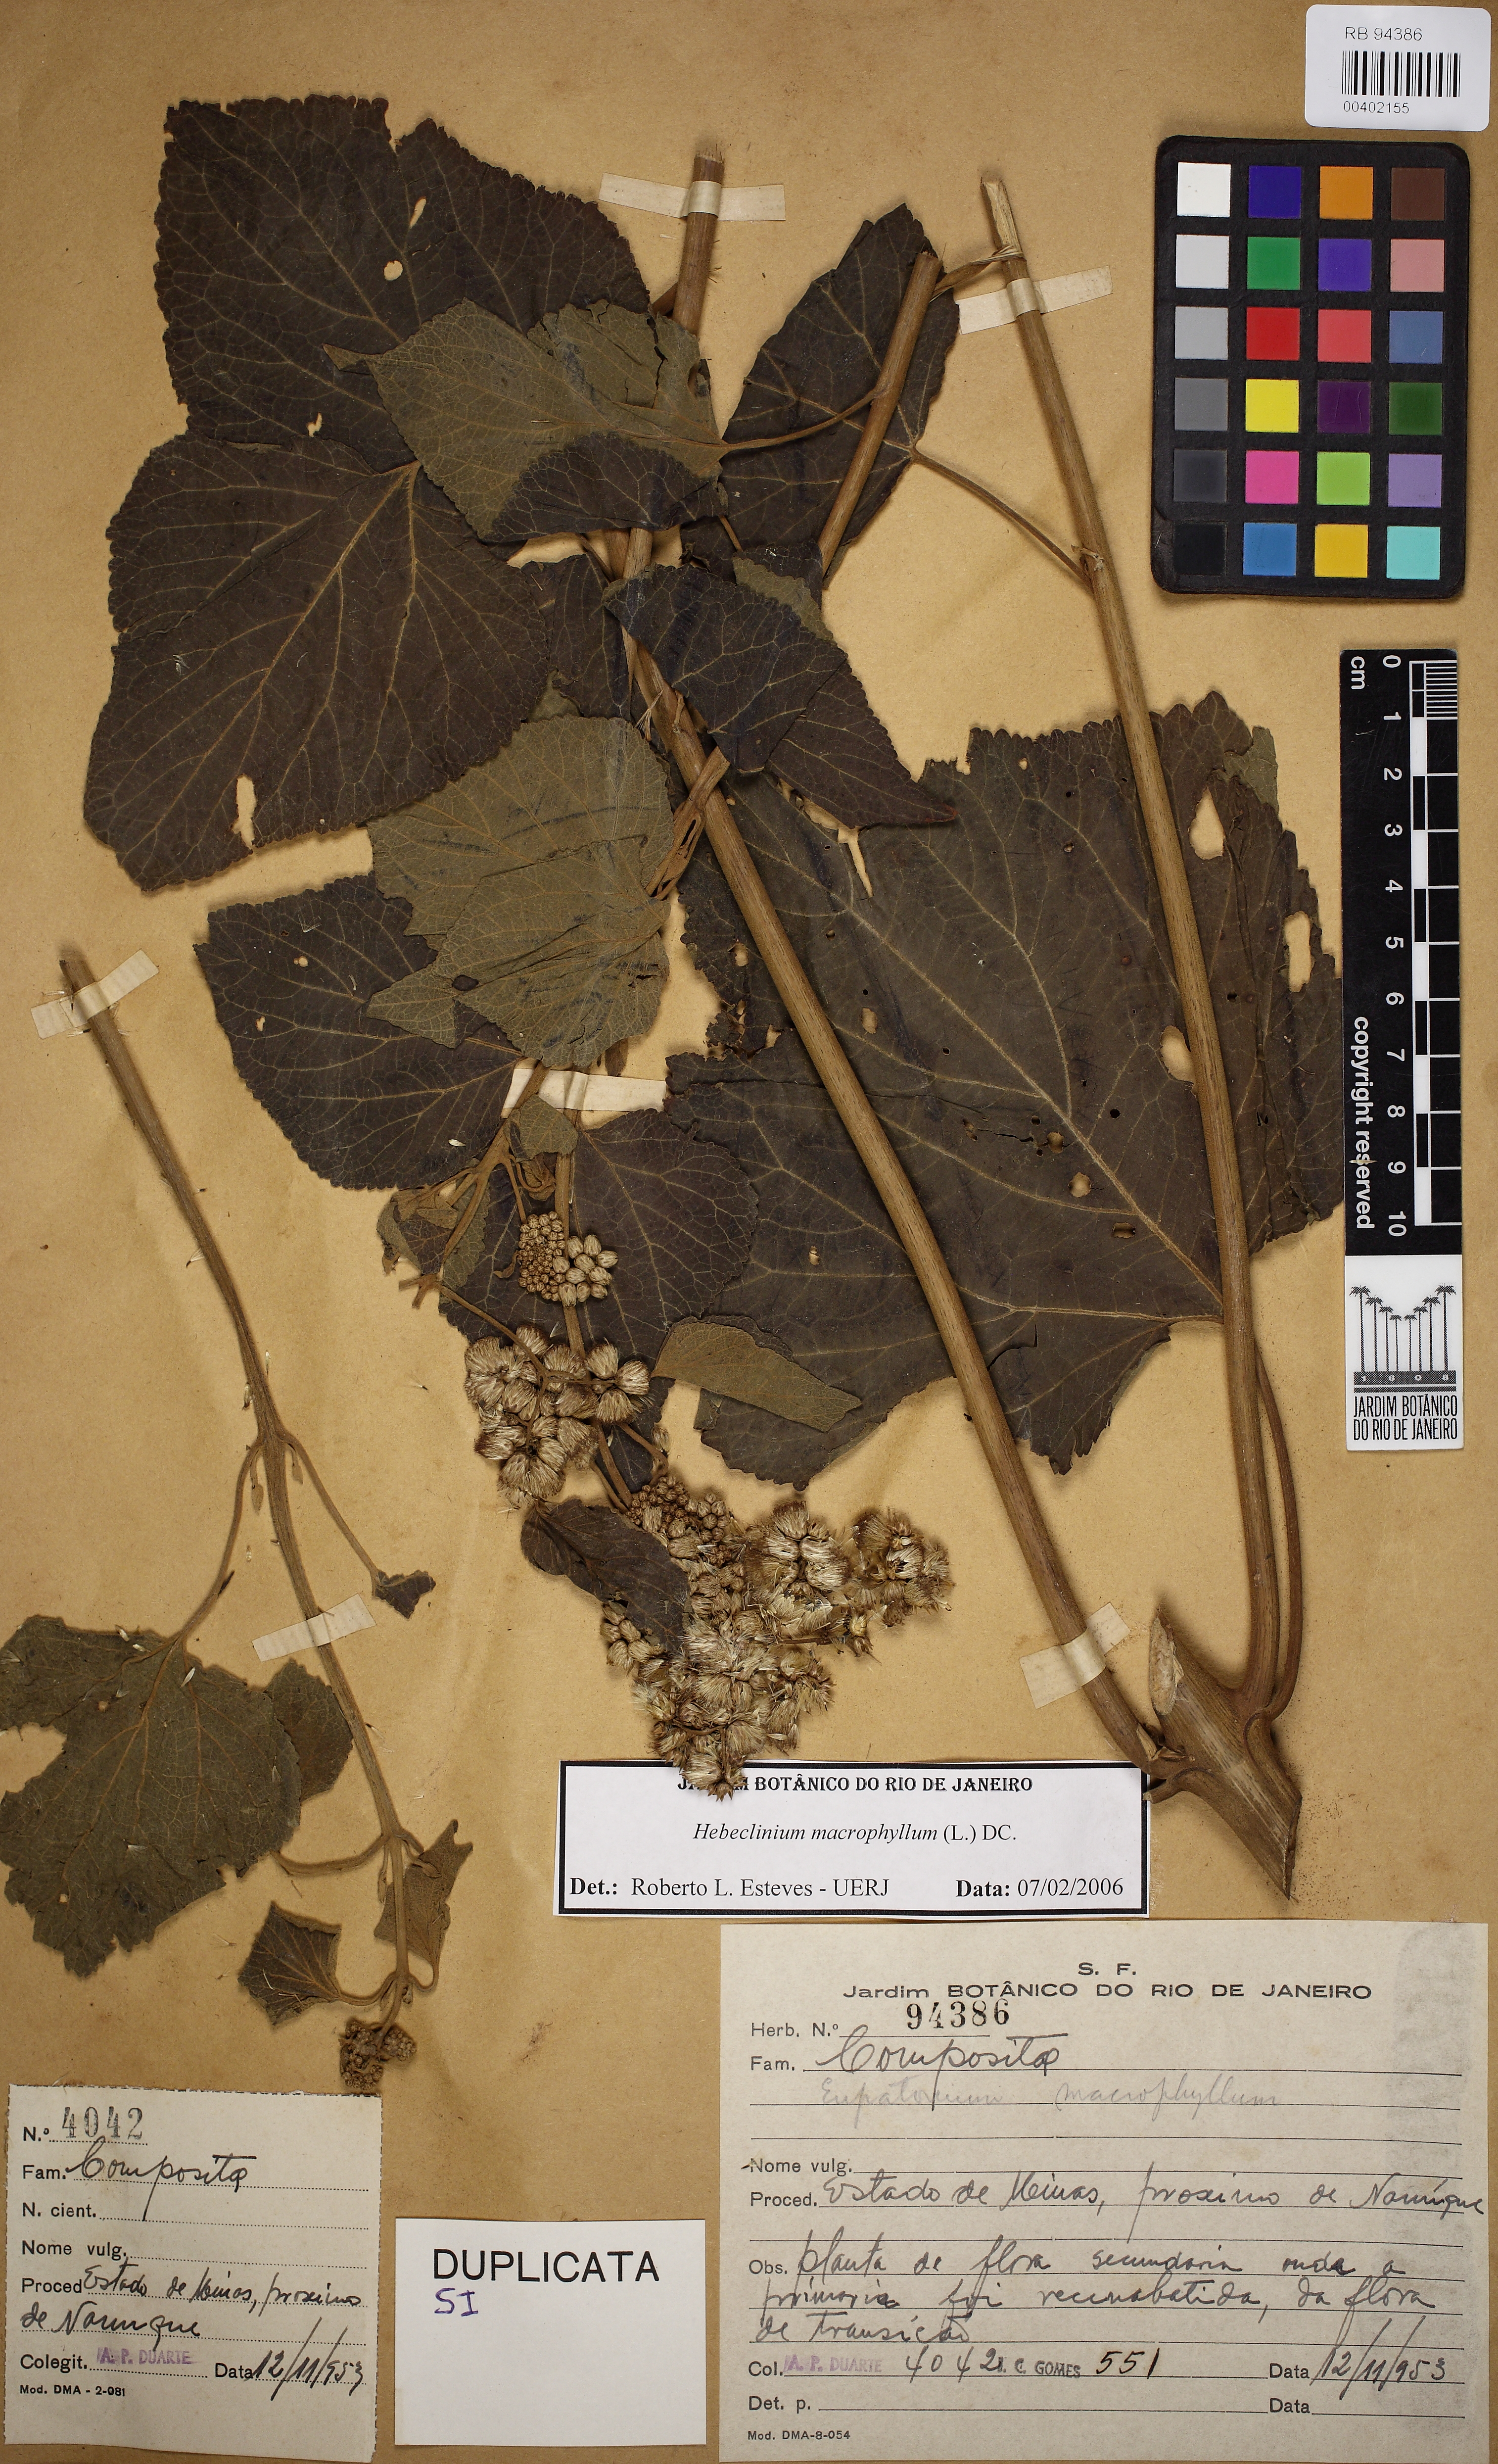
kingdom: Plantae
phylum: Tracheophyta
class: Magnoliopsida
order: Asterales
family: Asteraceae
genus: Hebeclinium
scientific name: Hebeclinium macrophyllum
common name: Largeleaf thoroughwort
